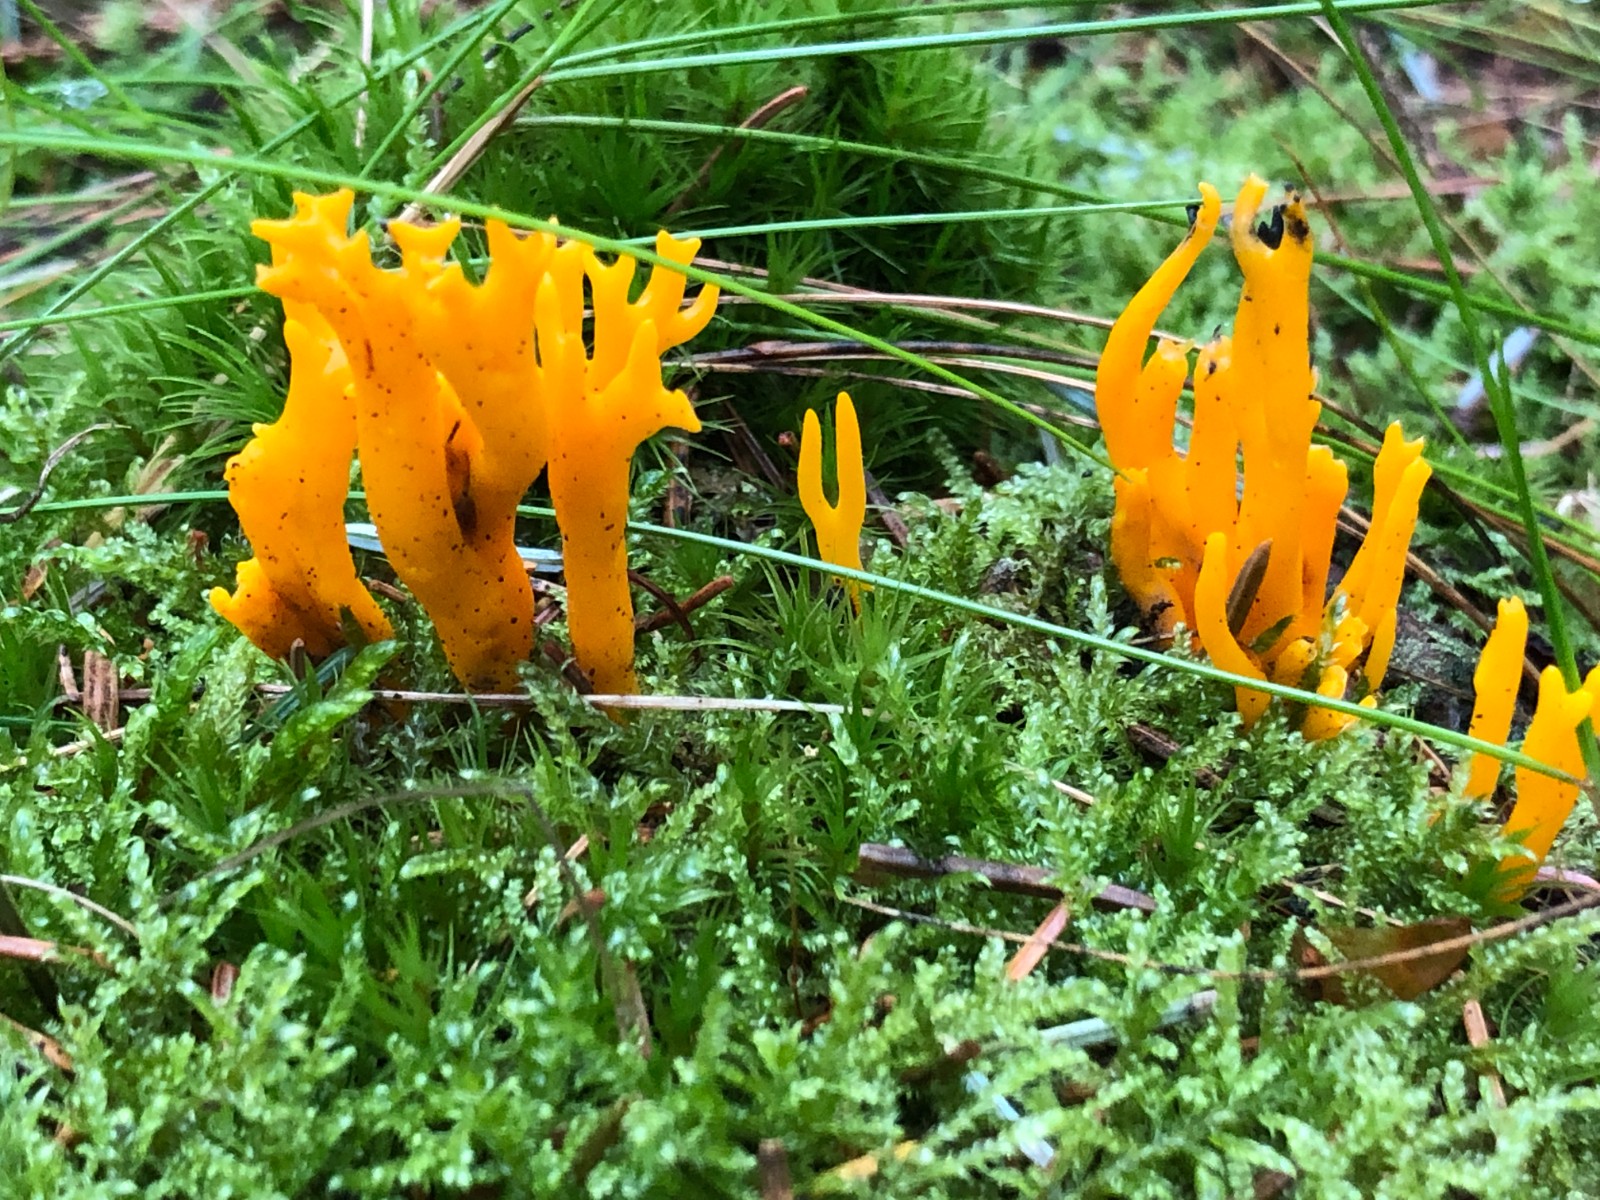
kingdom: Fungi
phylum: Basidiomycota
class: Dacrymycetes
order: Dacrymycetales
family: Dacrymycetaceae
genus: Calocera
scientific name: Calocera viscosa
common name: almindelig guldgaffel
